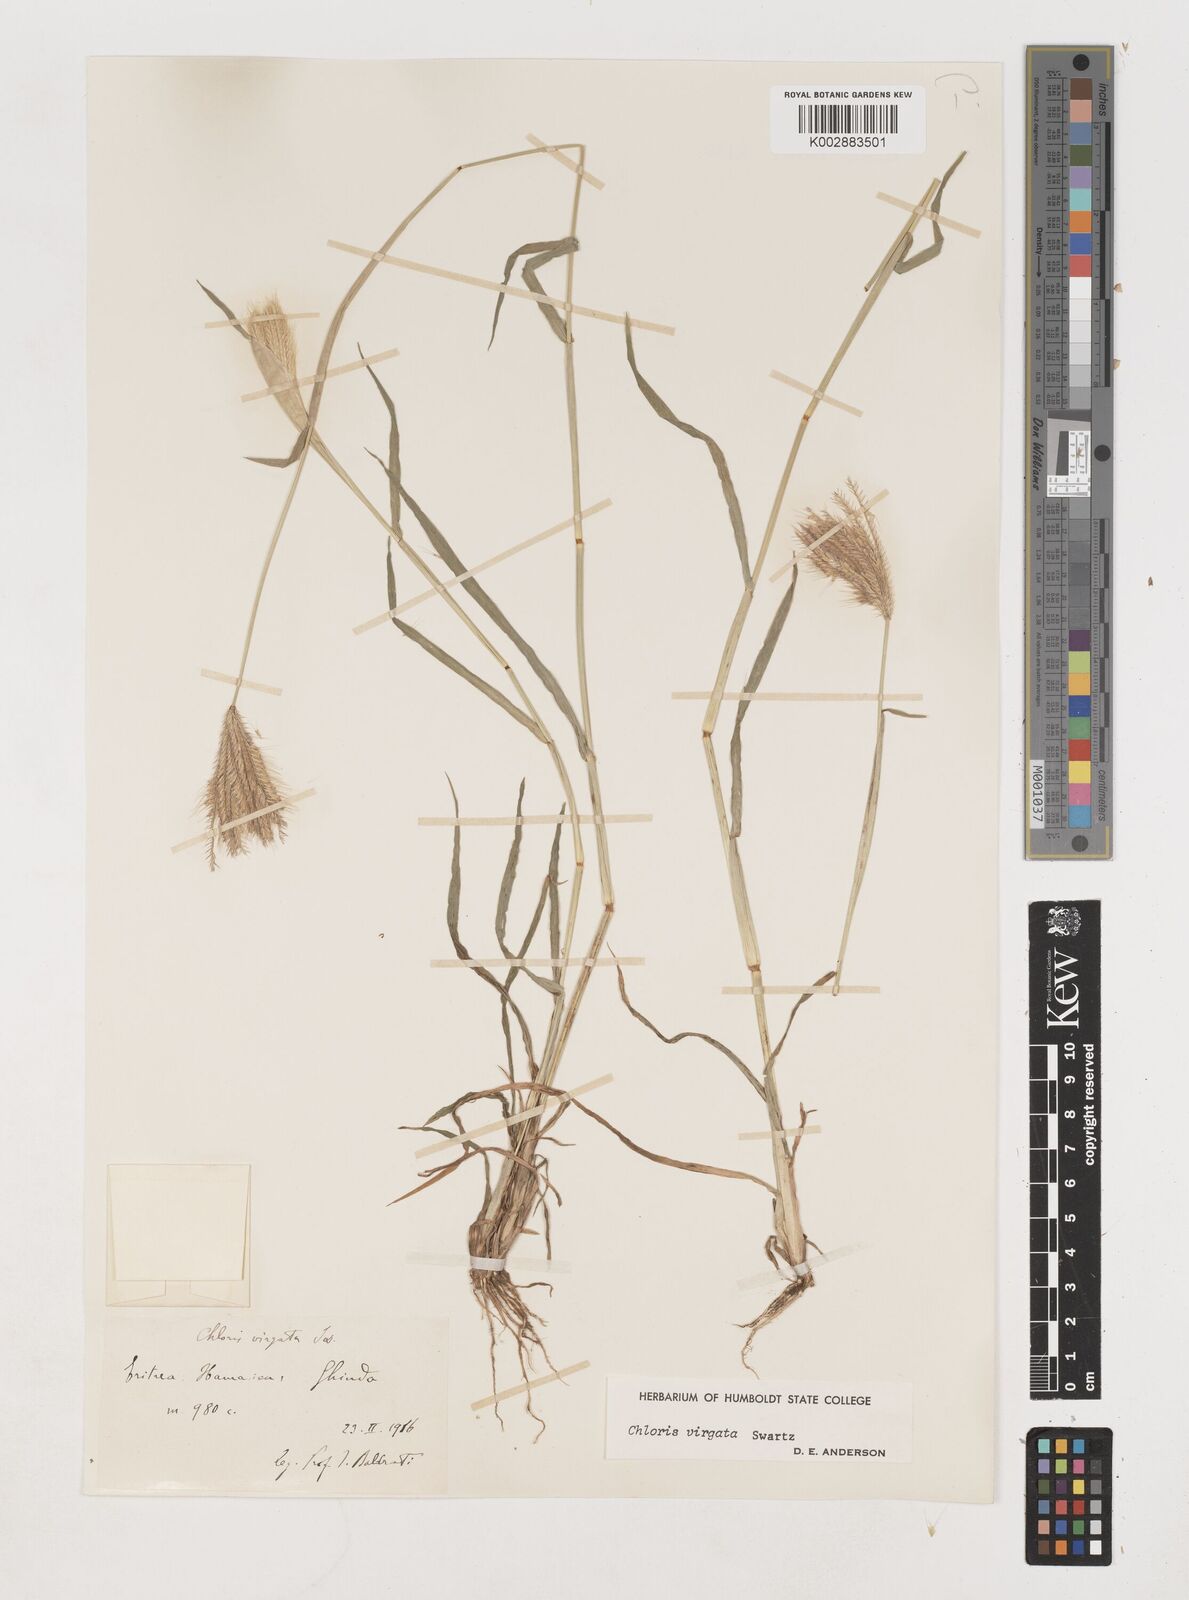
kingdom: Plantae
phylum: Tracheophyta
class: Liliopsida
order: Poales
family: Poaceae
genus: Chloris
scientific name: Chloris virgata
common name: Feathery rhodes-grass
